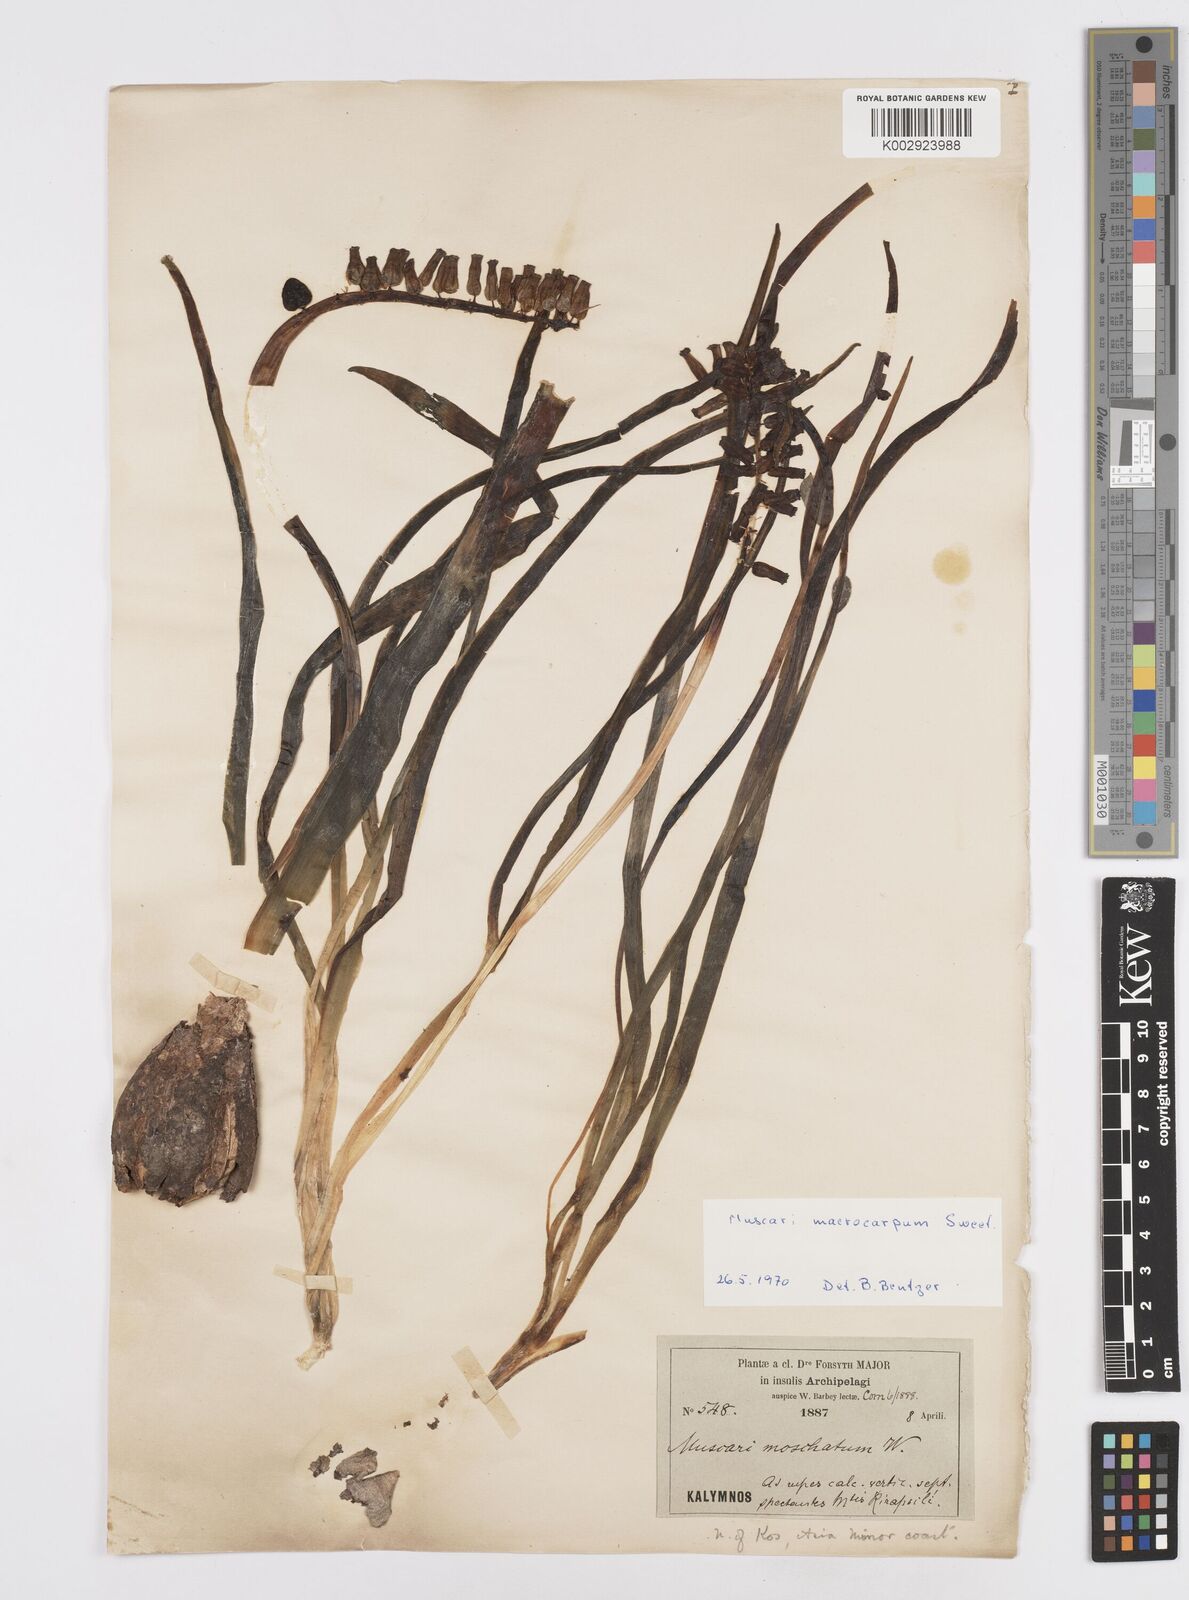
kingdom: Plantae
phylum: Tracheophyta
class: Liliopsida
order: Asparagales
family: Asparagaceae
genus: Muscarimia
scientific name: Muscarimia macrocarpa
